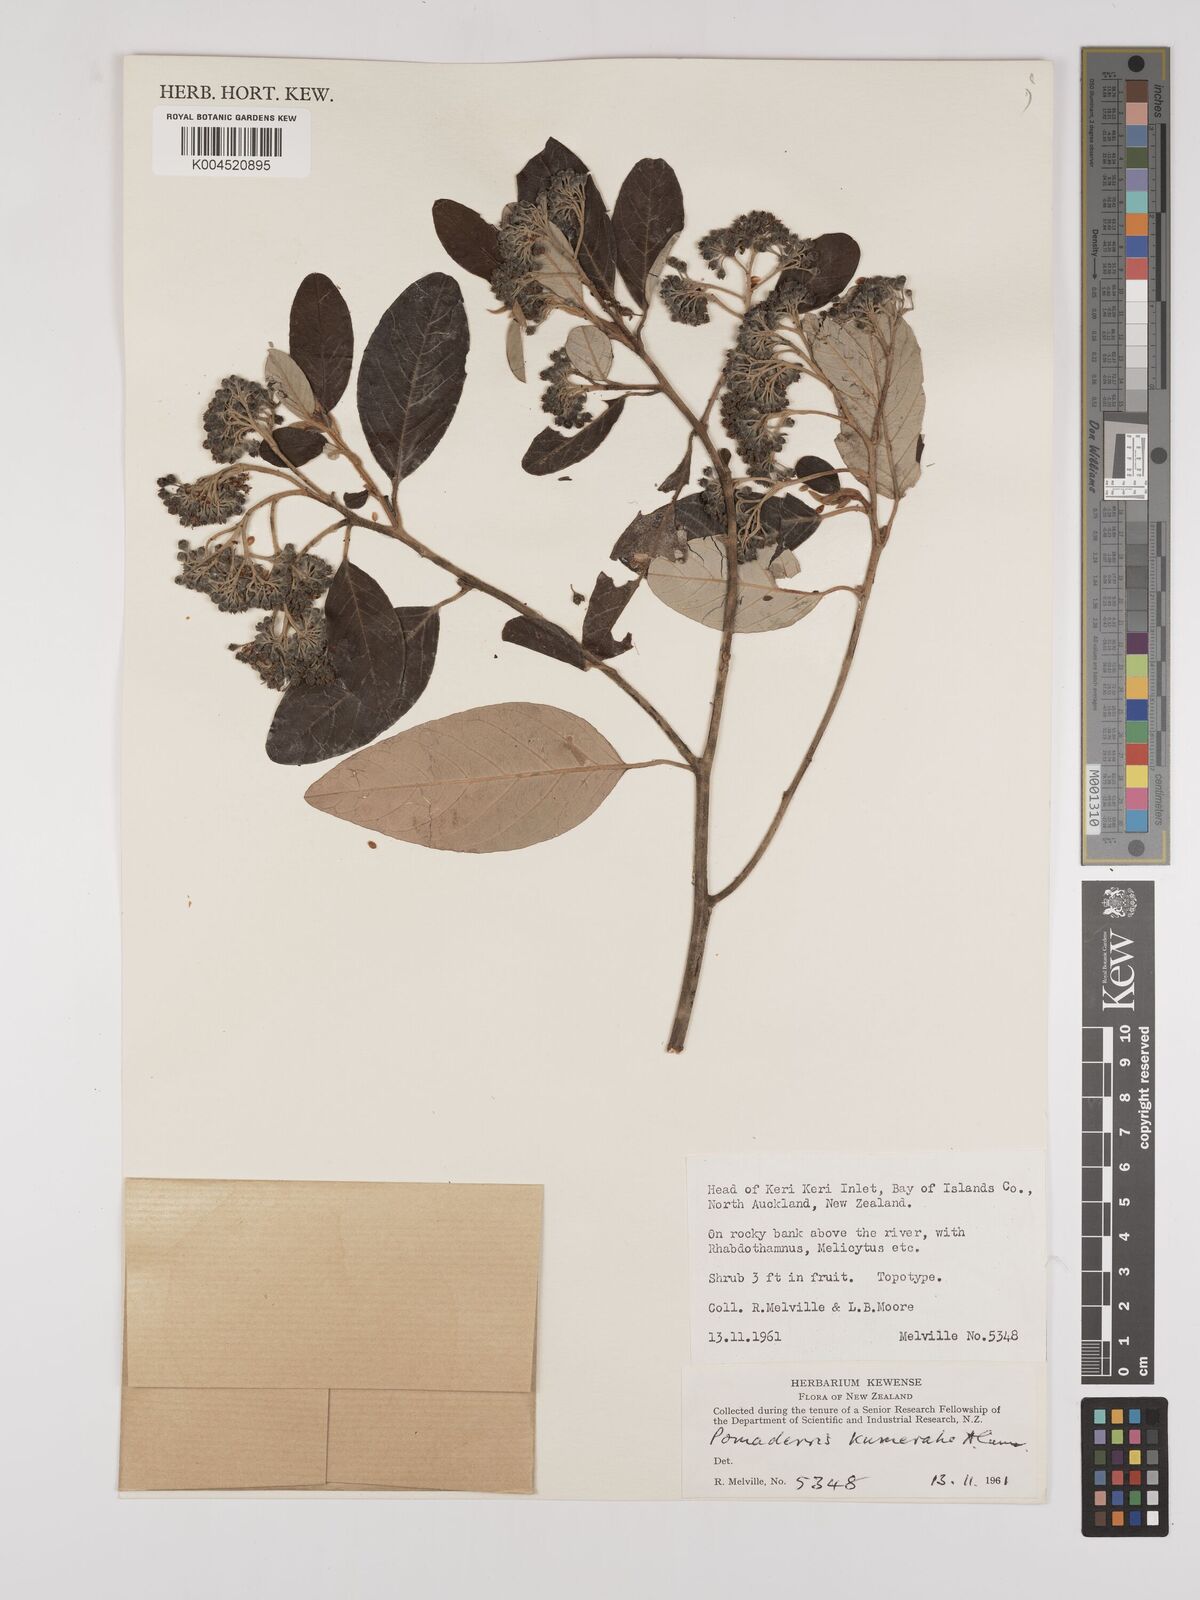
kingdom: Plantae
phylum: Tracheophyta
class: Magnoliopsida
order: Rosales
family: Rhamnaceae
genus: Pomaderris
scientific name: Pomaderris kumeraho
